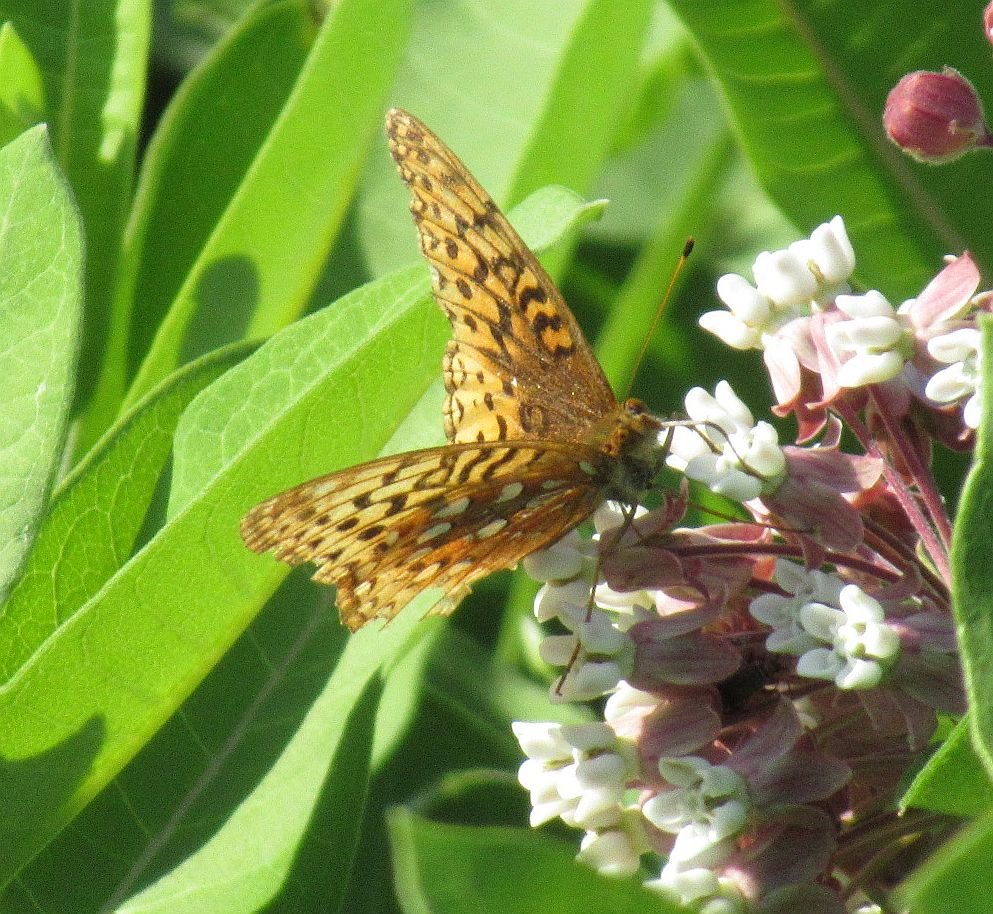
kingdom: Animalia
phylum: Arthropoda
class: Insecta
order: Lepidoptera
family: Nymphalidae
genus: Speyeria
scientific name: Speyeria cybele
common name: Great Spangled Fritillary
